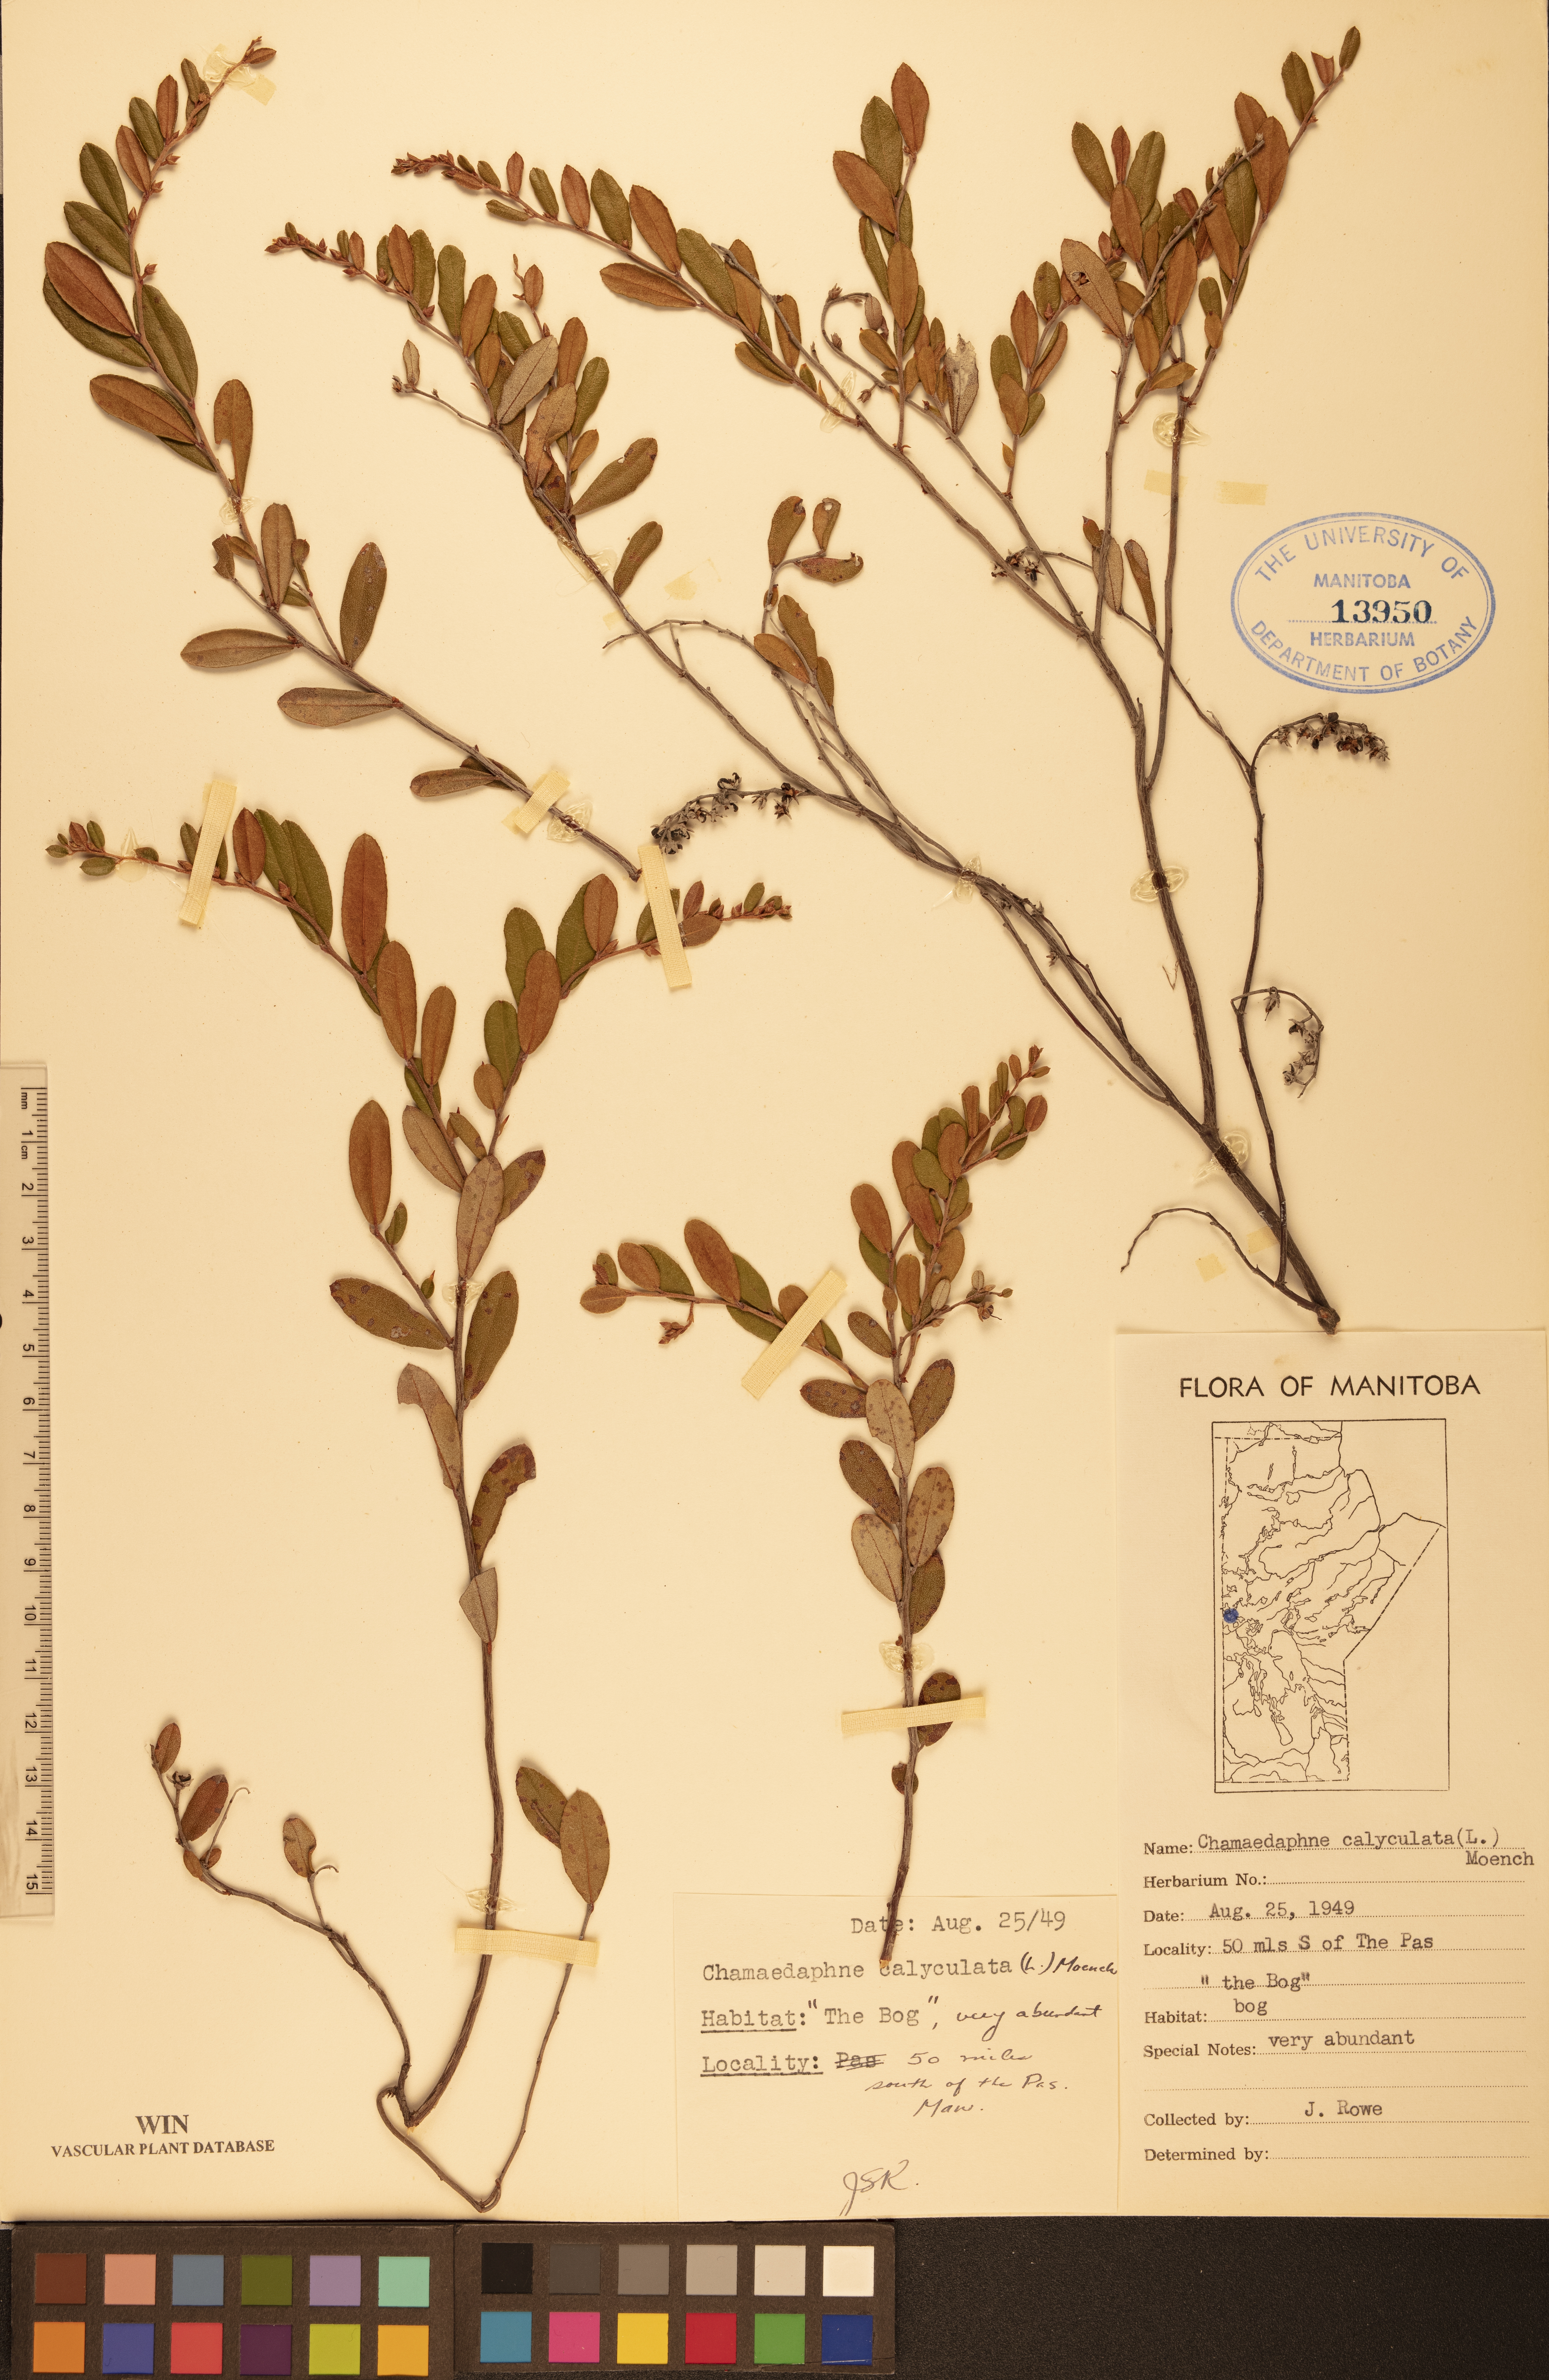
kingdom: Plantae
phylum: Tracheophyta
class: Magnoliopsida
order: Ericales
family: Ericaceae
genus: Chamaedaphne
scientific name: Chamaedaphne calyculata
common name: Leatherleaf
